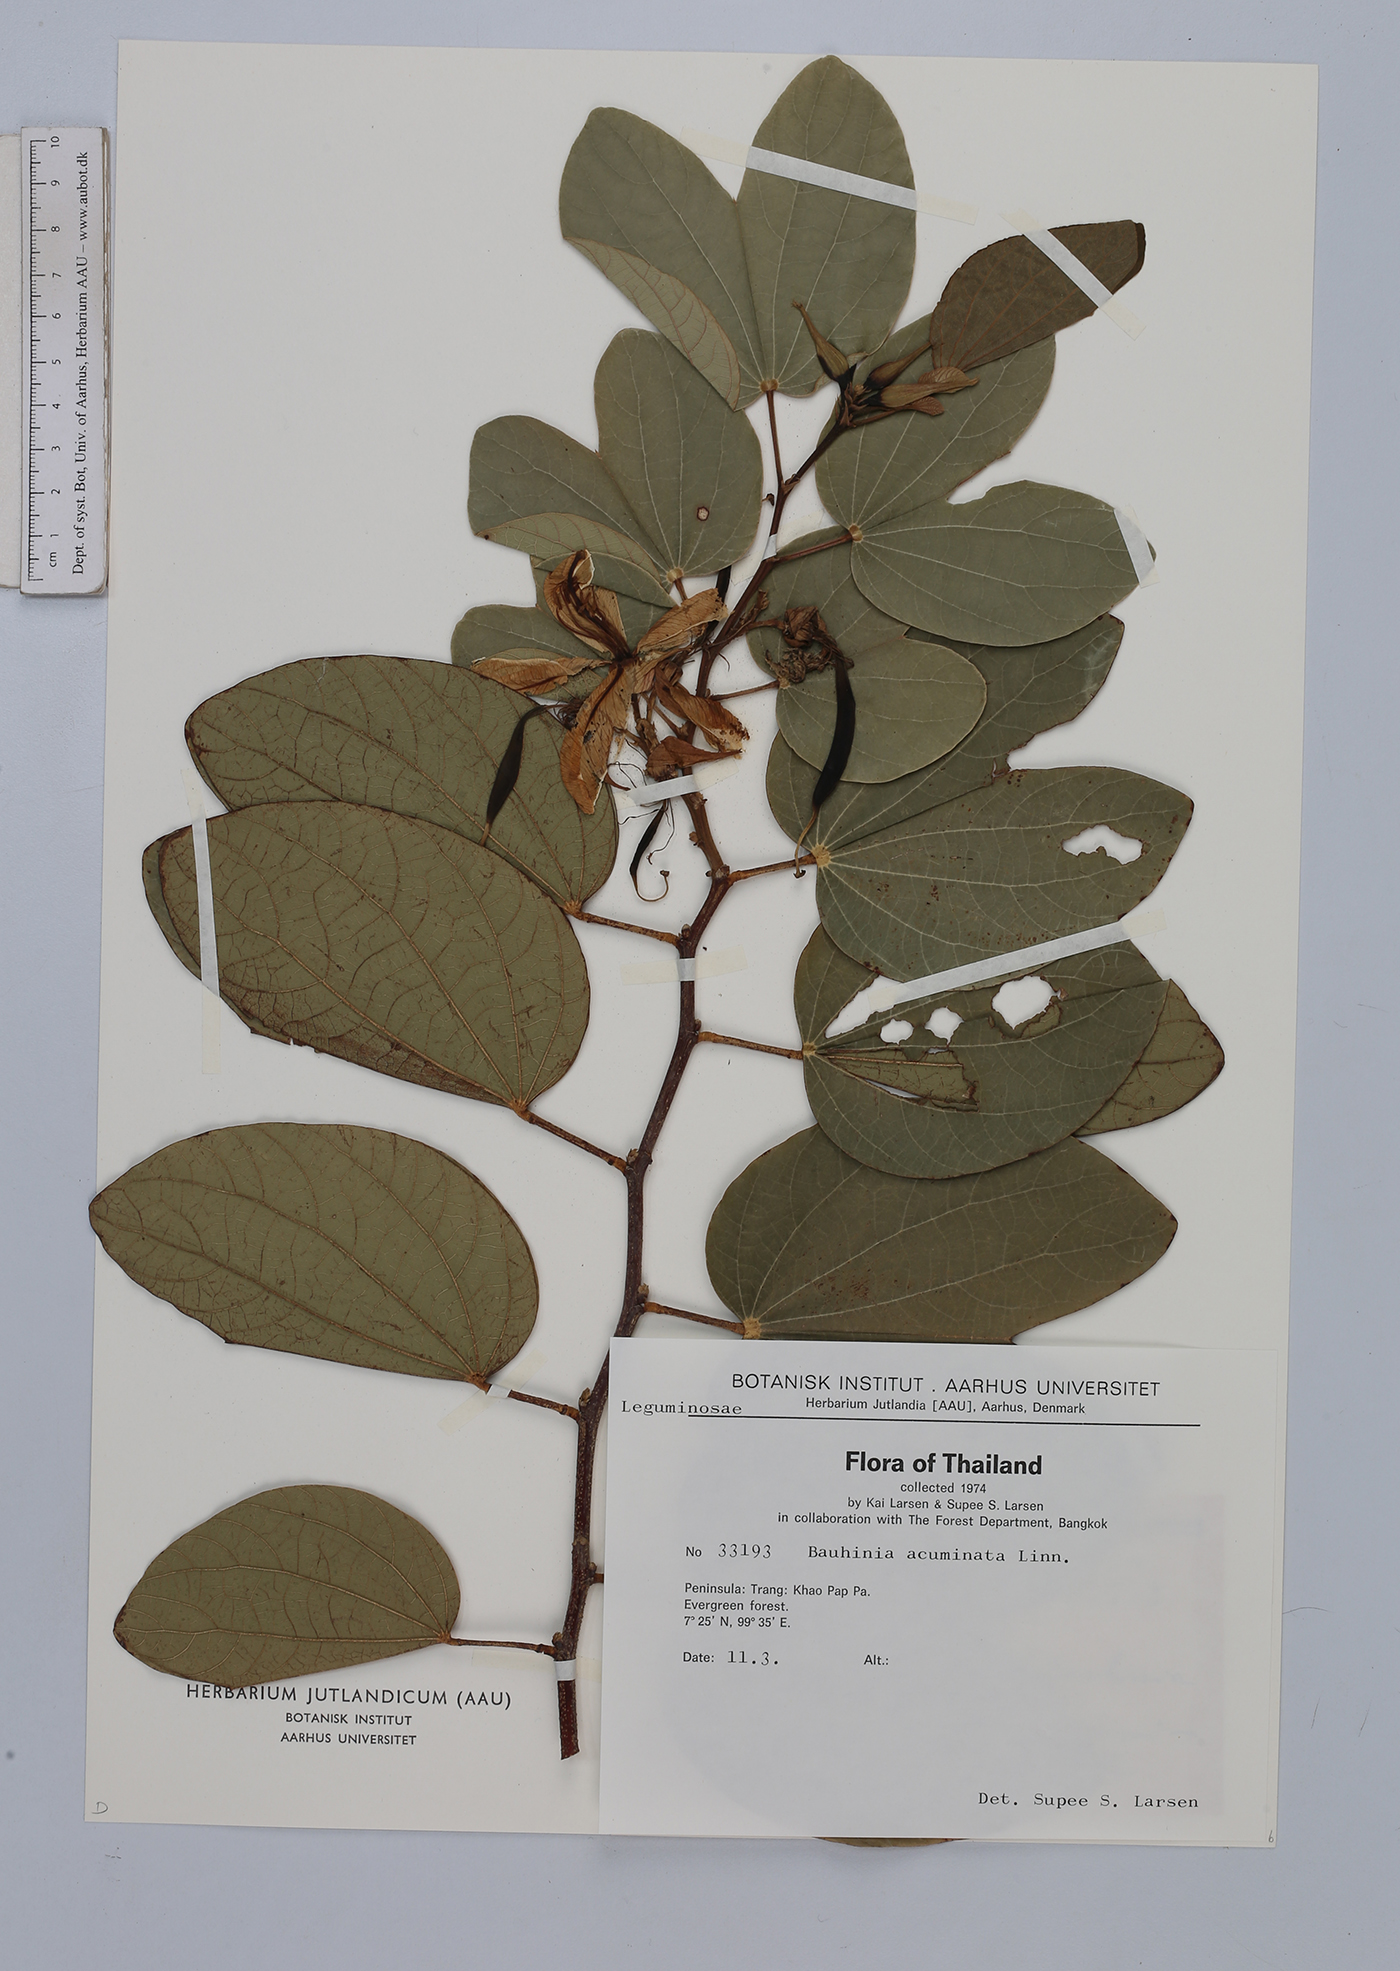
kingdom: Plantae
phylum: Tracheophyta
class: Magnoliopsida
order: Fabales
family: Fabaceae
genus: Bauhinia
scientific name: Bauhinia acuminata
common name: Dwarf white bauhinia
